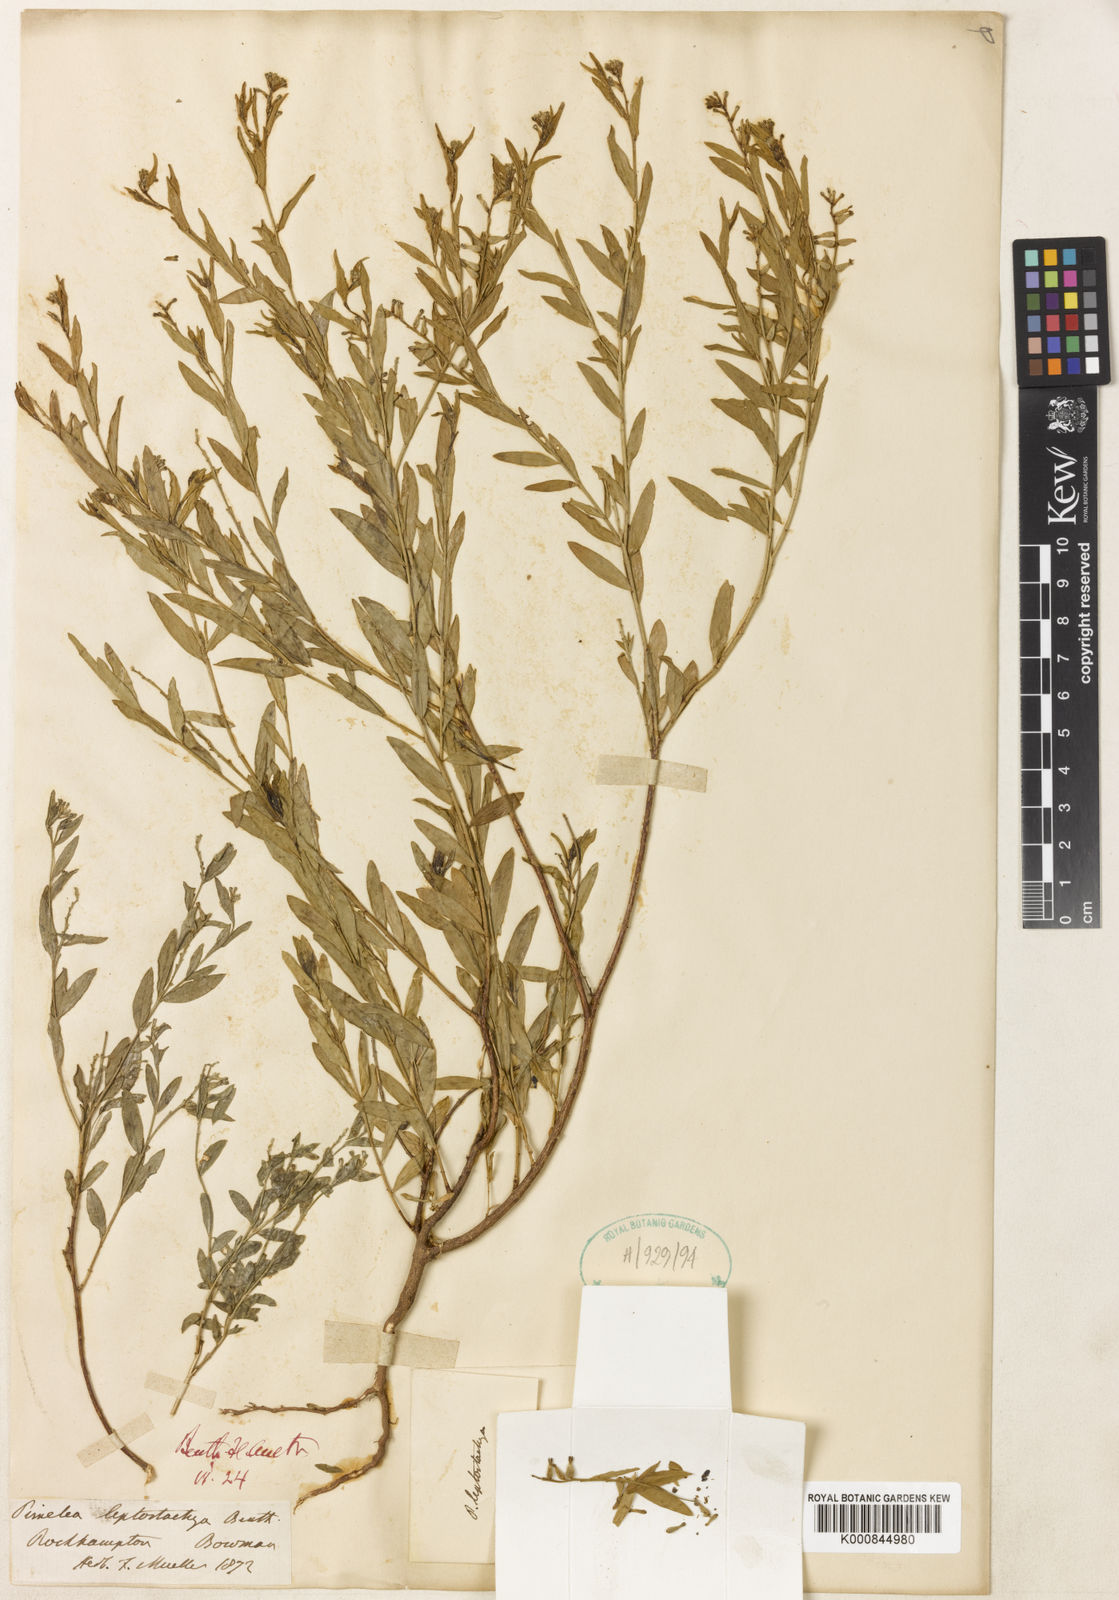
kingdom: Plantae
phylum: Tracheophyta
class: Magnoliopsida
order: Malvales
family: Thymelaeaceae
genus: Pimelea
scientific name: Pimelea sericostachya
